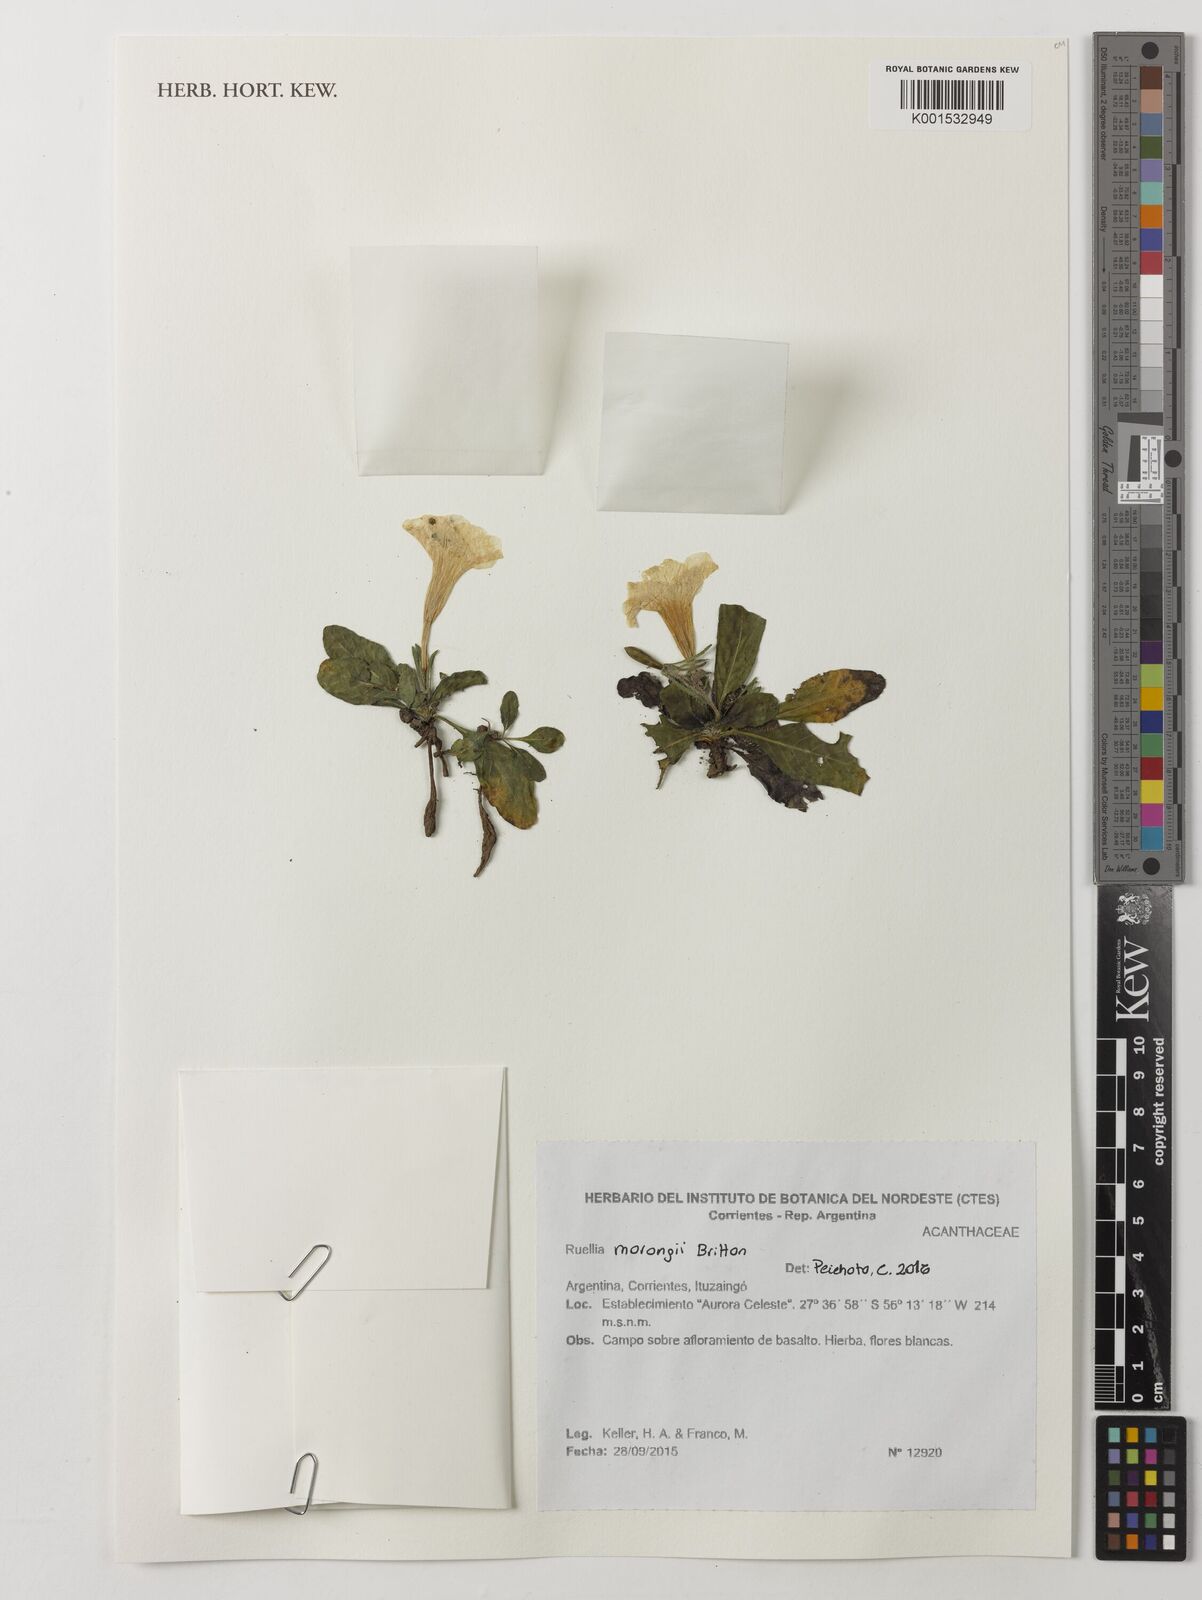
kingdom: Plantae
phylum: Tracheophyta
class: Magnoliopsida
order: Lamiales
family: Acanthaceae
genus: Ruellia
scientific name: Ruellia morongii
